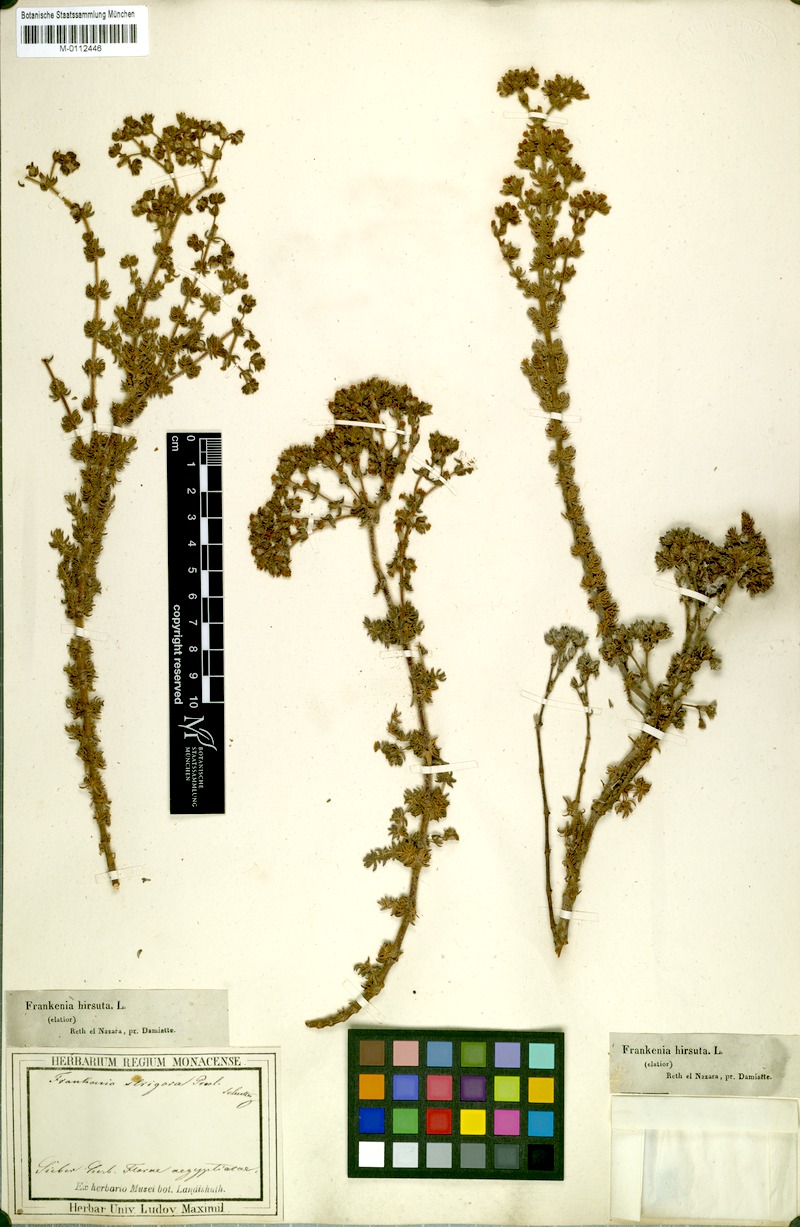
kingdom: Plantae
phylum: Tracheophyta
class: Magnoliopsida
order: Caryophyllales
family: Frankeniaceae
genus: Frankenia
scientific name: Frankenia hirsuta
